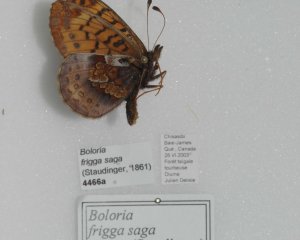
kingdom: Animalia
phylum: Arthropoda
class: Insecta
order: Lepidoptera
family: Nymphalidae
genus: Boloria
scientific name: Boloria frigga
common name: Frigga Fritillary
